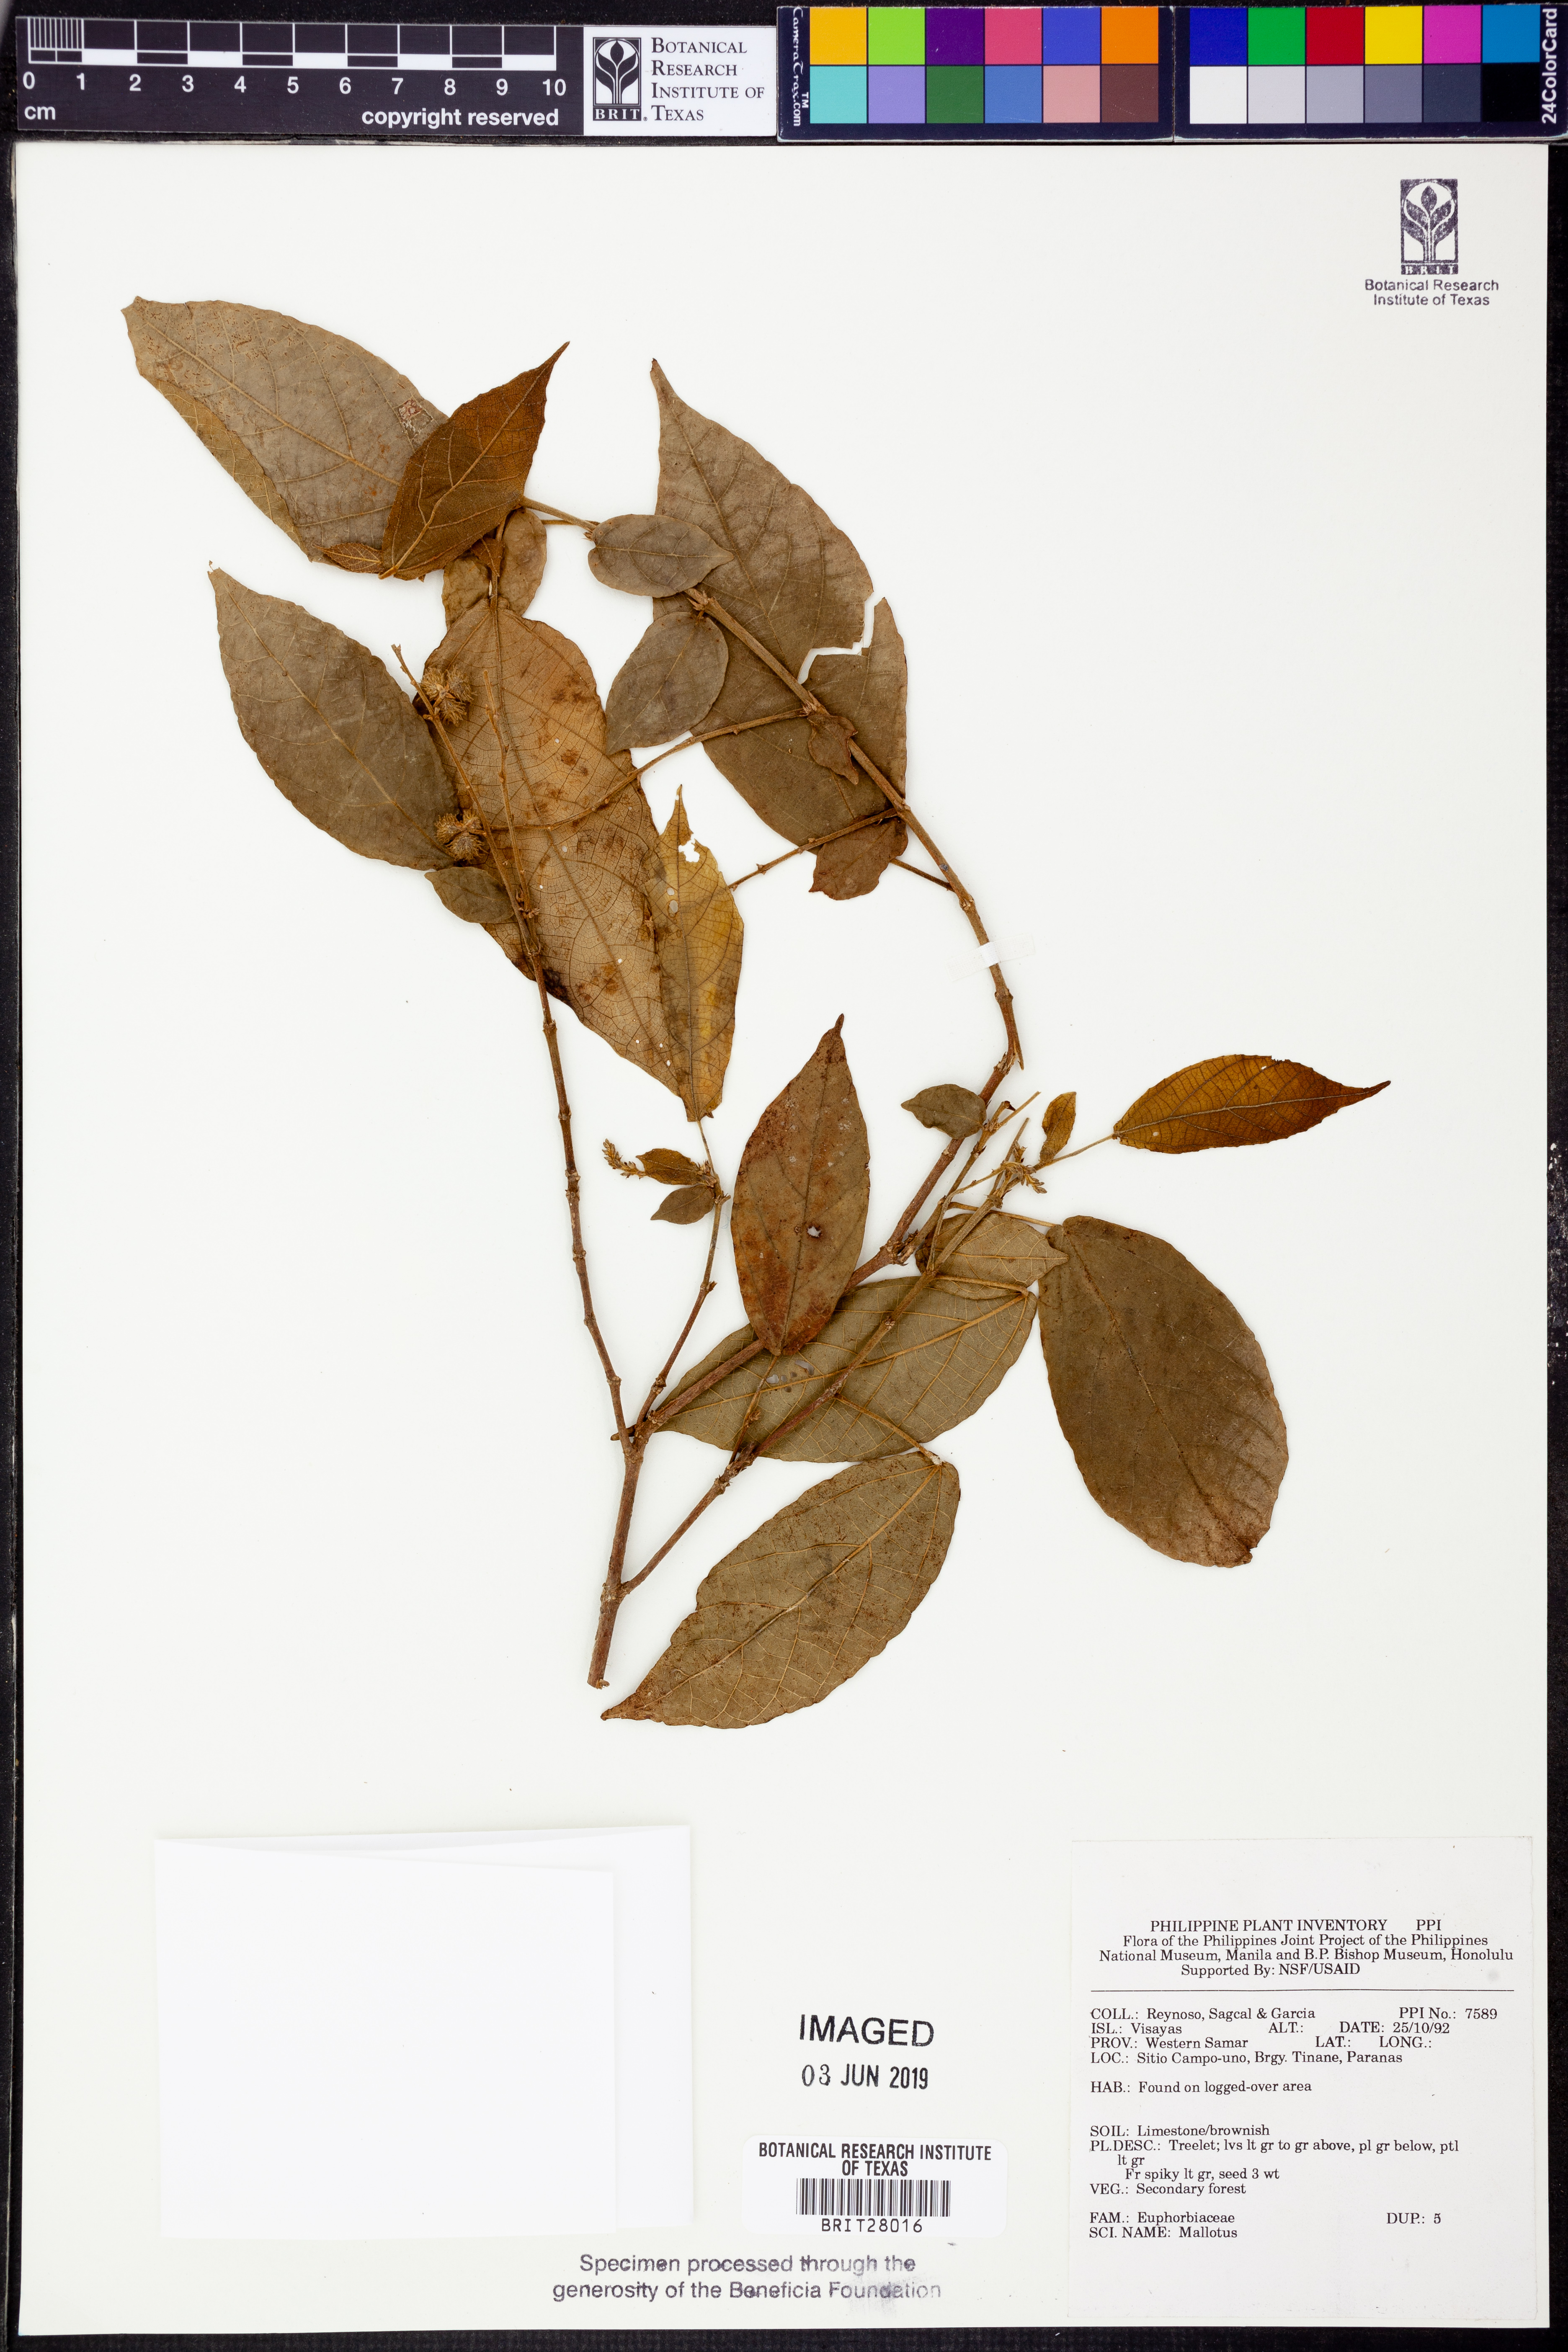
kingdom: Plantae
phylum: Tracheophyta
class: Magnoliopsida
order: Malpighiales
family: Euphorbiaceae
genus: Mallotus
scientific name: Mallotus
